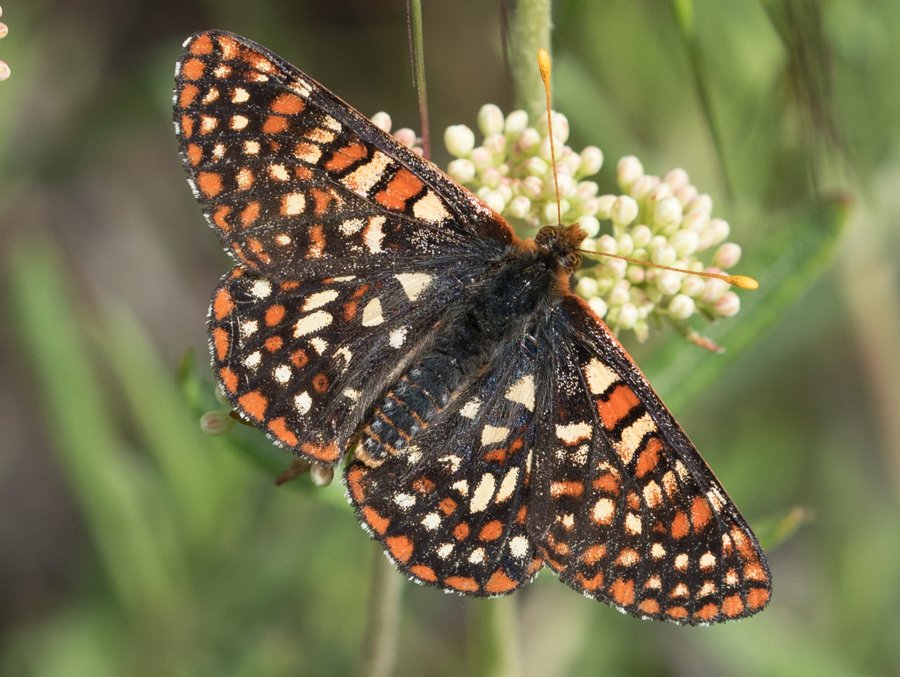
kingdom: Animalia
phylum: Arthropoda
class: Insecta
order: Lepidoptera
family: Nymphalidae
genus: Occidryas
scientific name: Occidryas anicia
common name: Anicia Checkerspot
